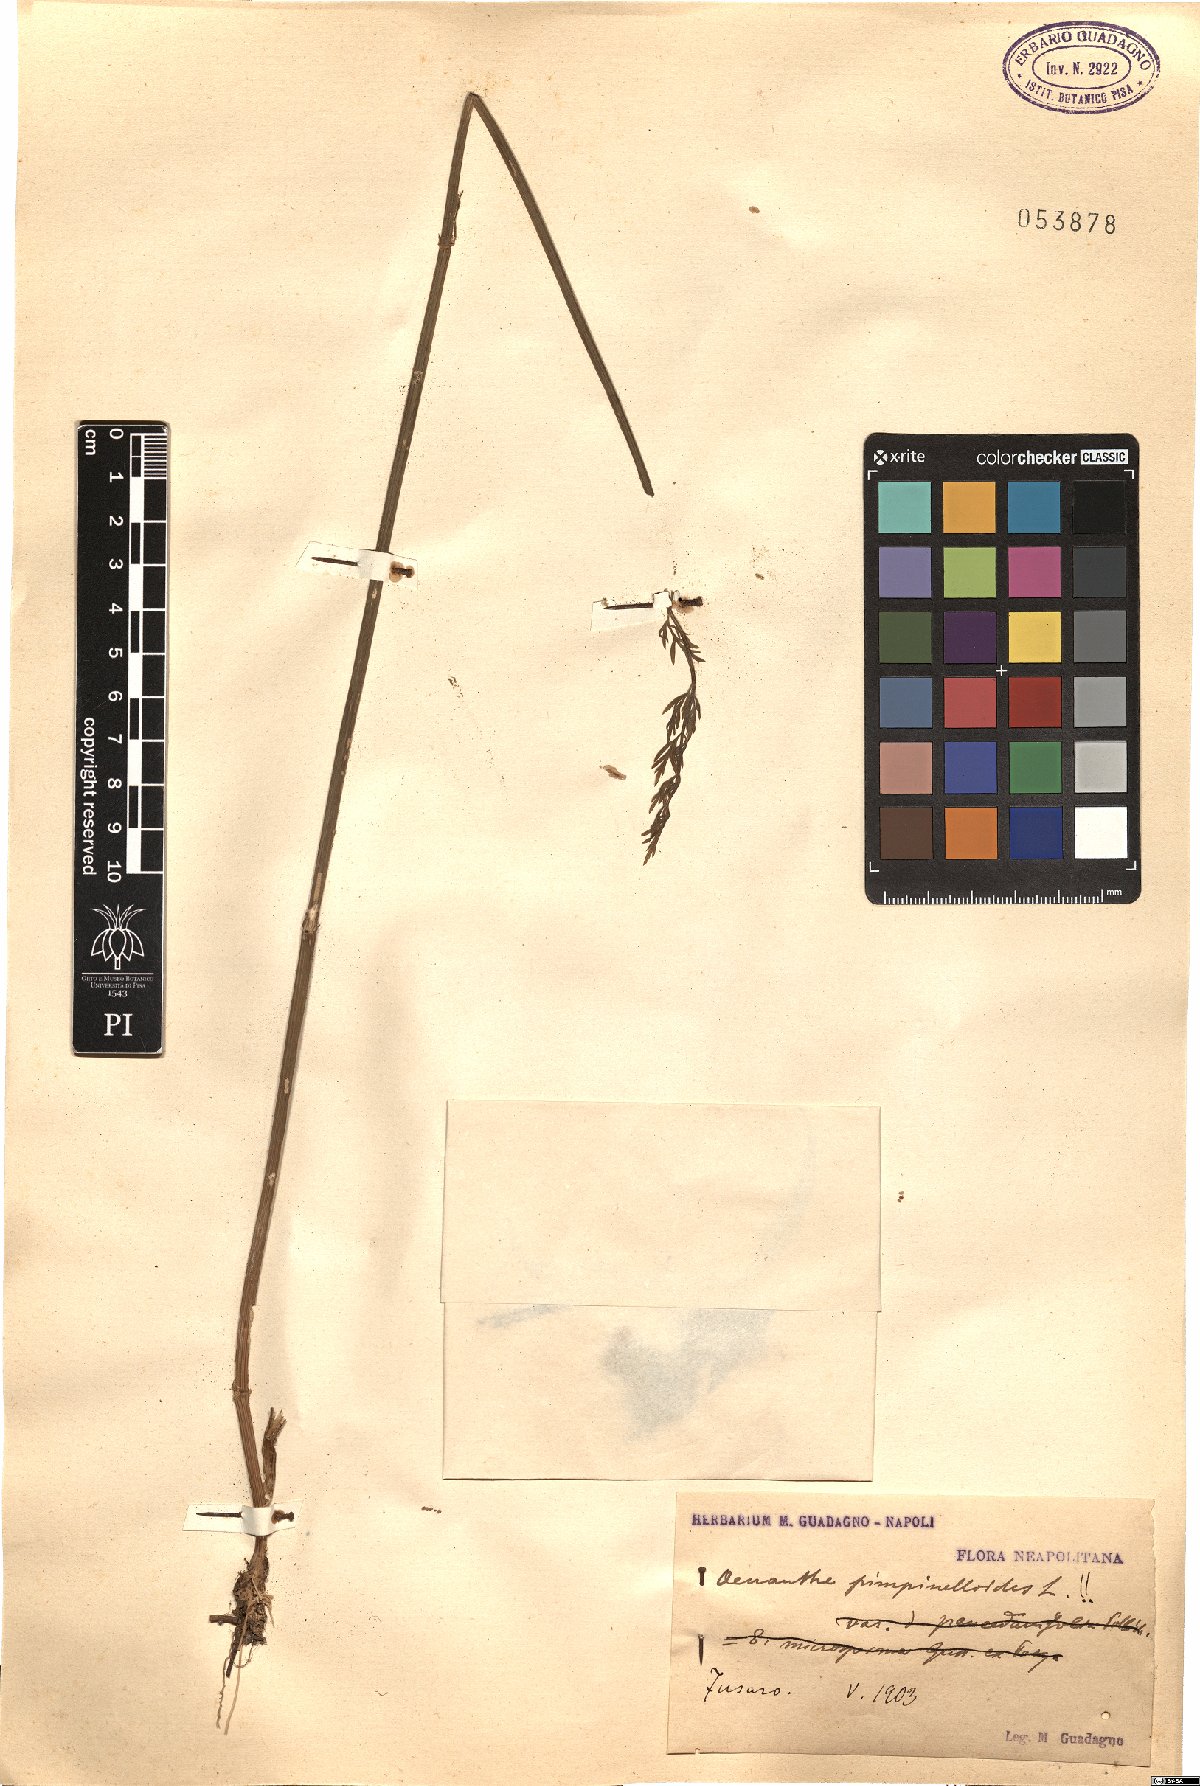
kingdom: Plantae
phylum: Tracheophyta
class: Magnoliopsida
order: Apiales
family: Apiaceae
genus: Oenanthe
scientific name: Oenanthe pimpinelloides
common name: Corky-fruited water-dropwort
